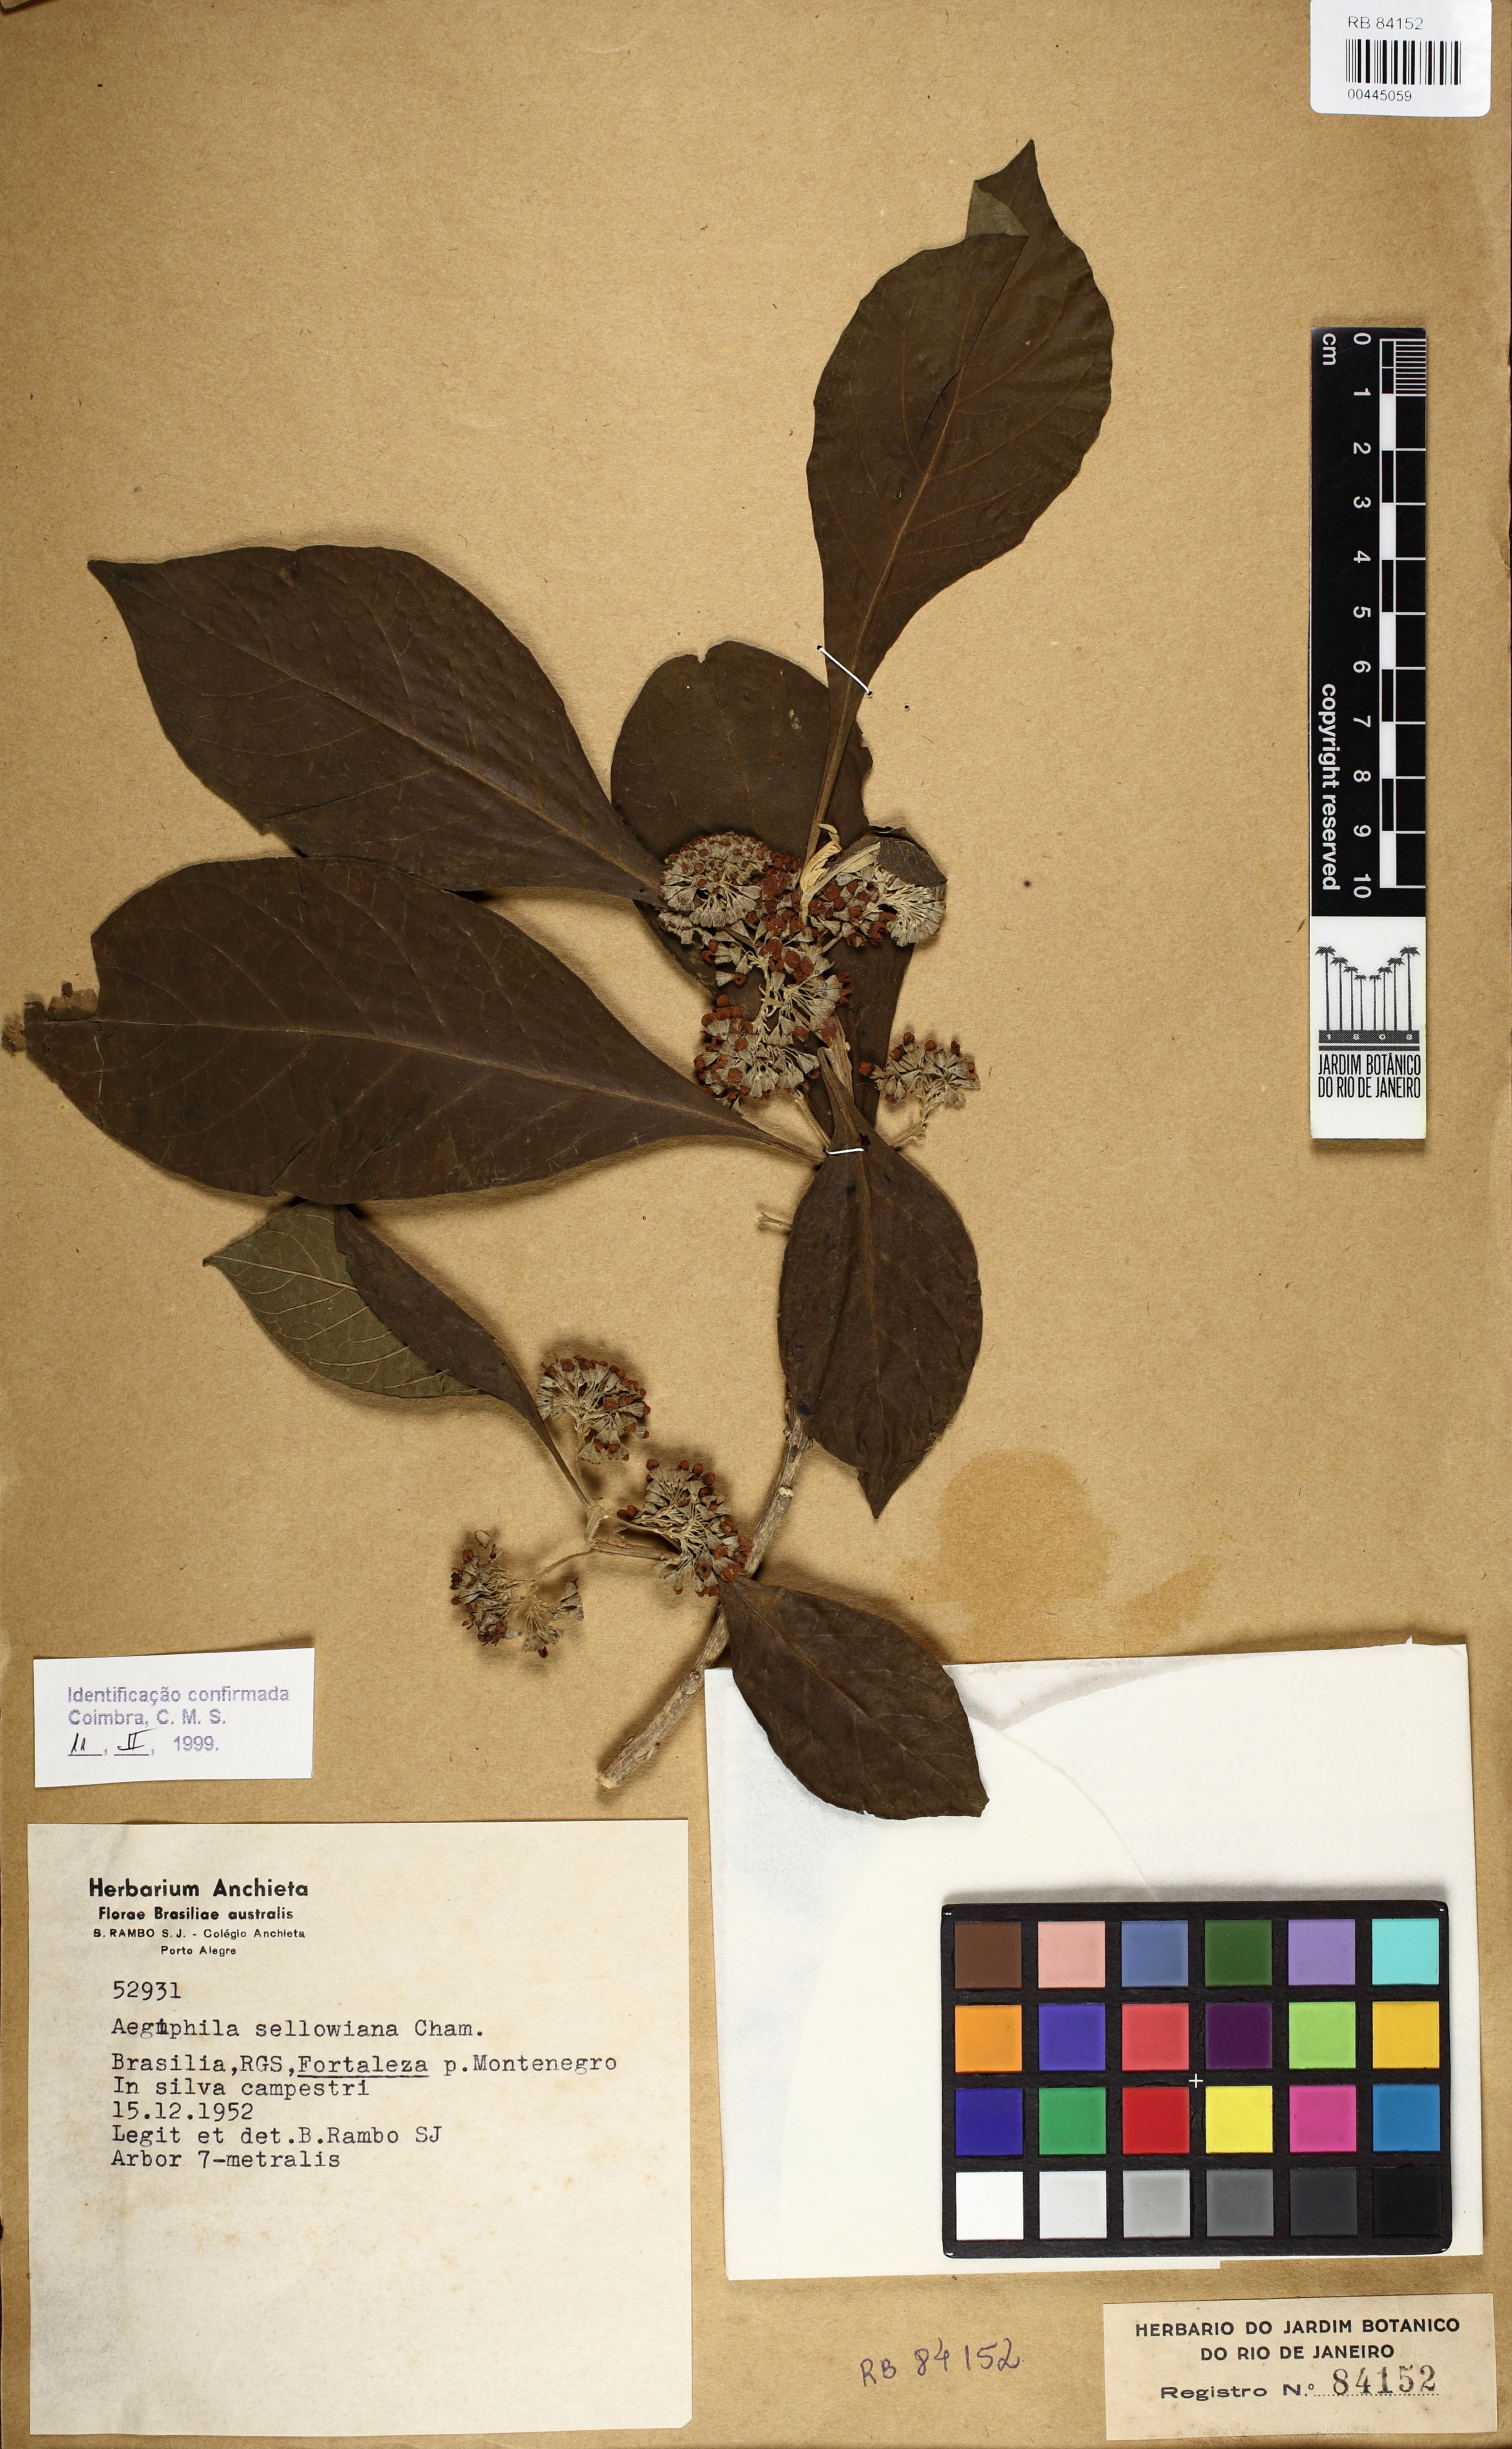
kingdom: Plantae
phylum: Tracheophyta
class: Magnoliopsida
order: Lamiales
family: Lamiaceae
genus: Aegiphila
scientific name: Aegiphila verticillata
